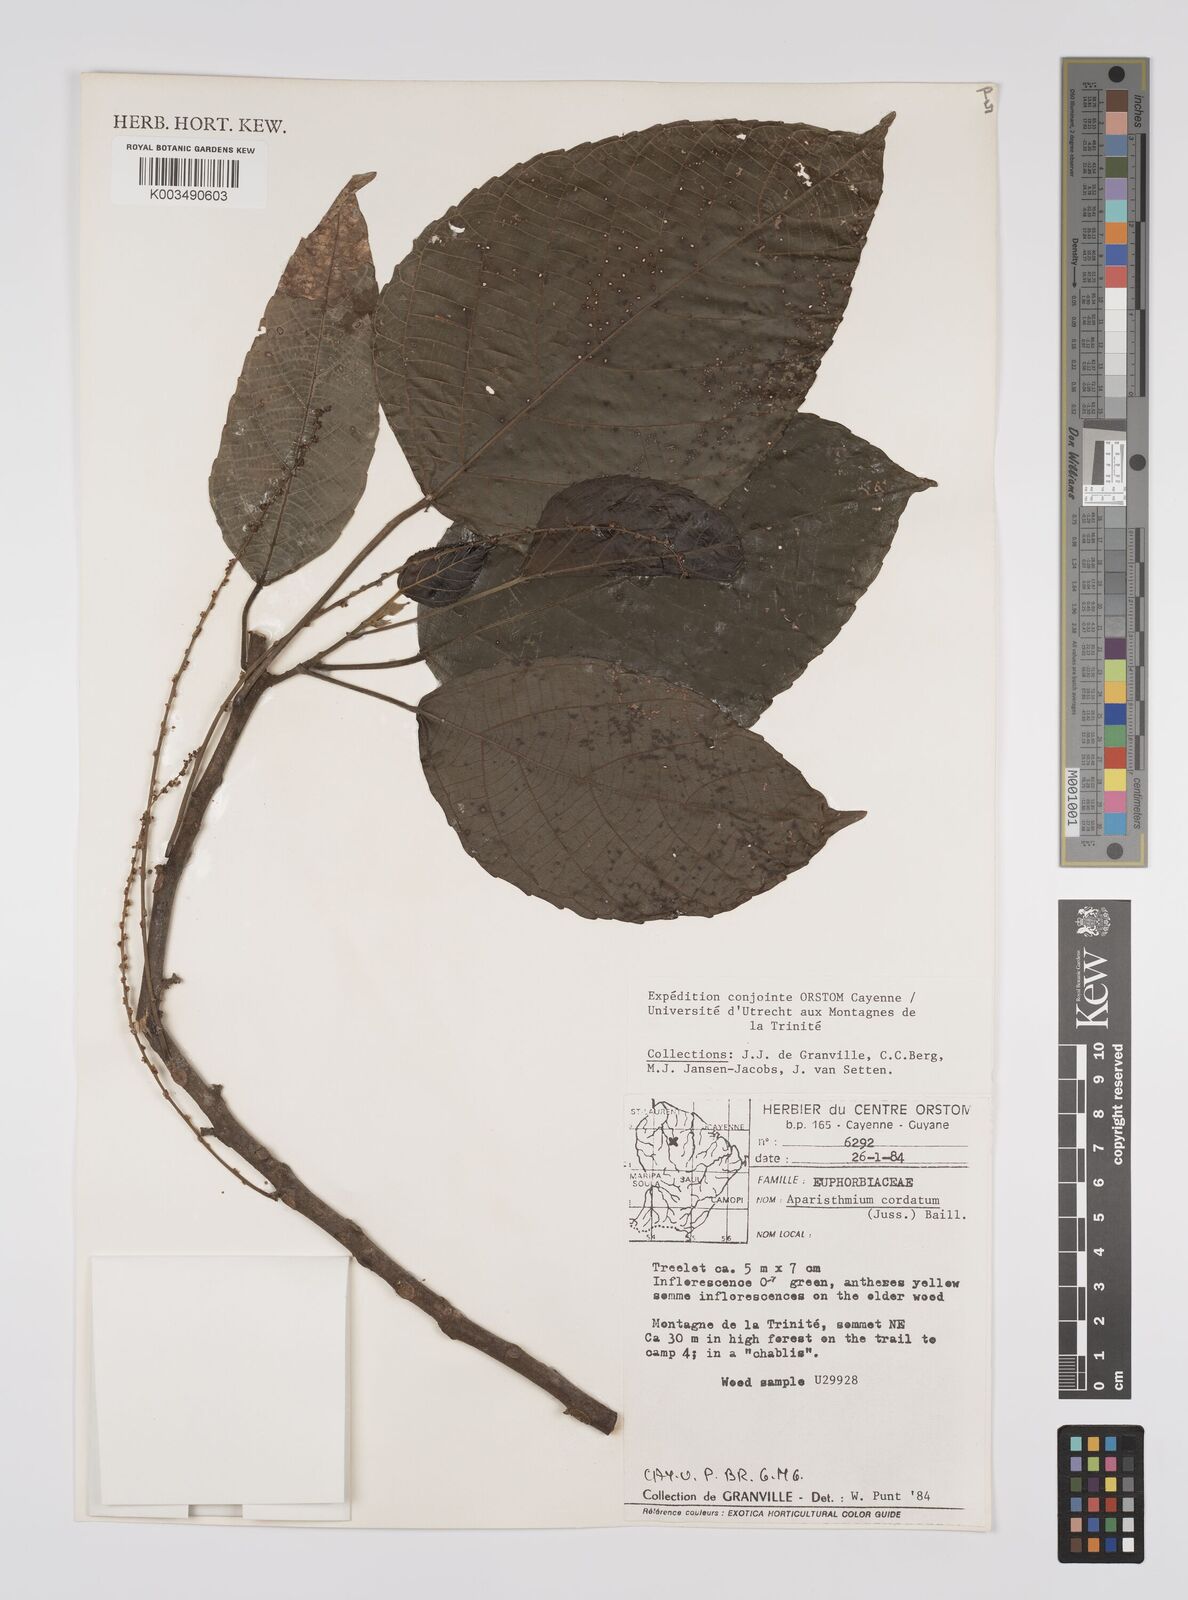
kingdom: Plantae
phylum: Tracheophyta
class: Magnoliopsida
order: Malpighiales
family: Euphorbiaceae
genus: Aparisthmium
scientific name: Aparisthmium cordatum
